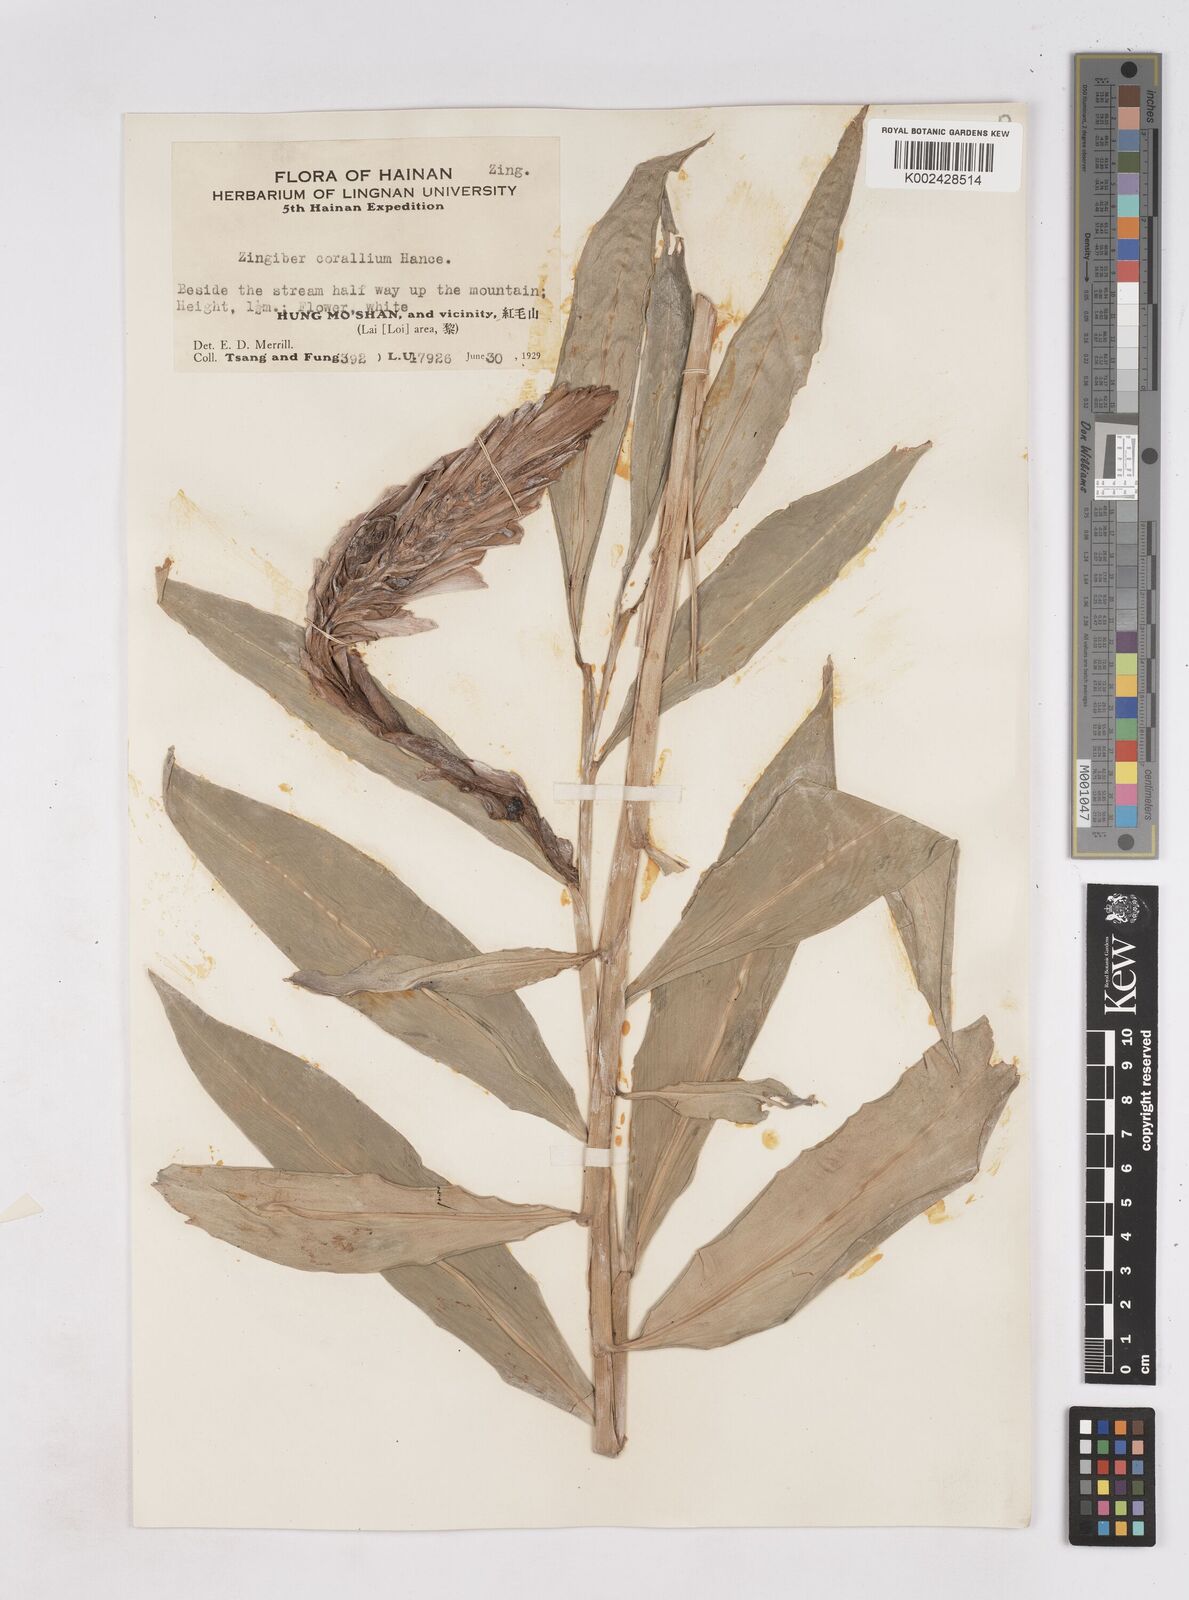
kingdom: Plantae
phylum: Tracheophyta
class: Liliopsida
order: Zingiberales
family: Zingiberaceae
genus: Zingiber
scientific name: Zingiber corallinum
